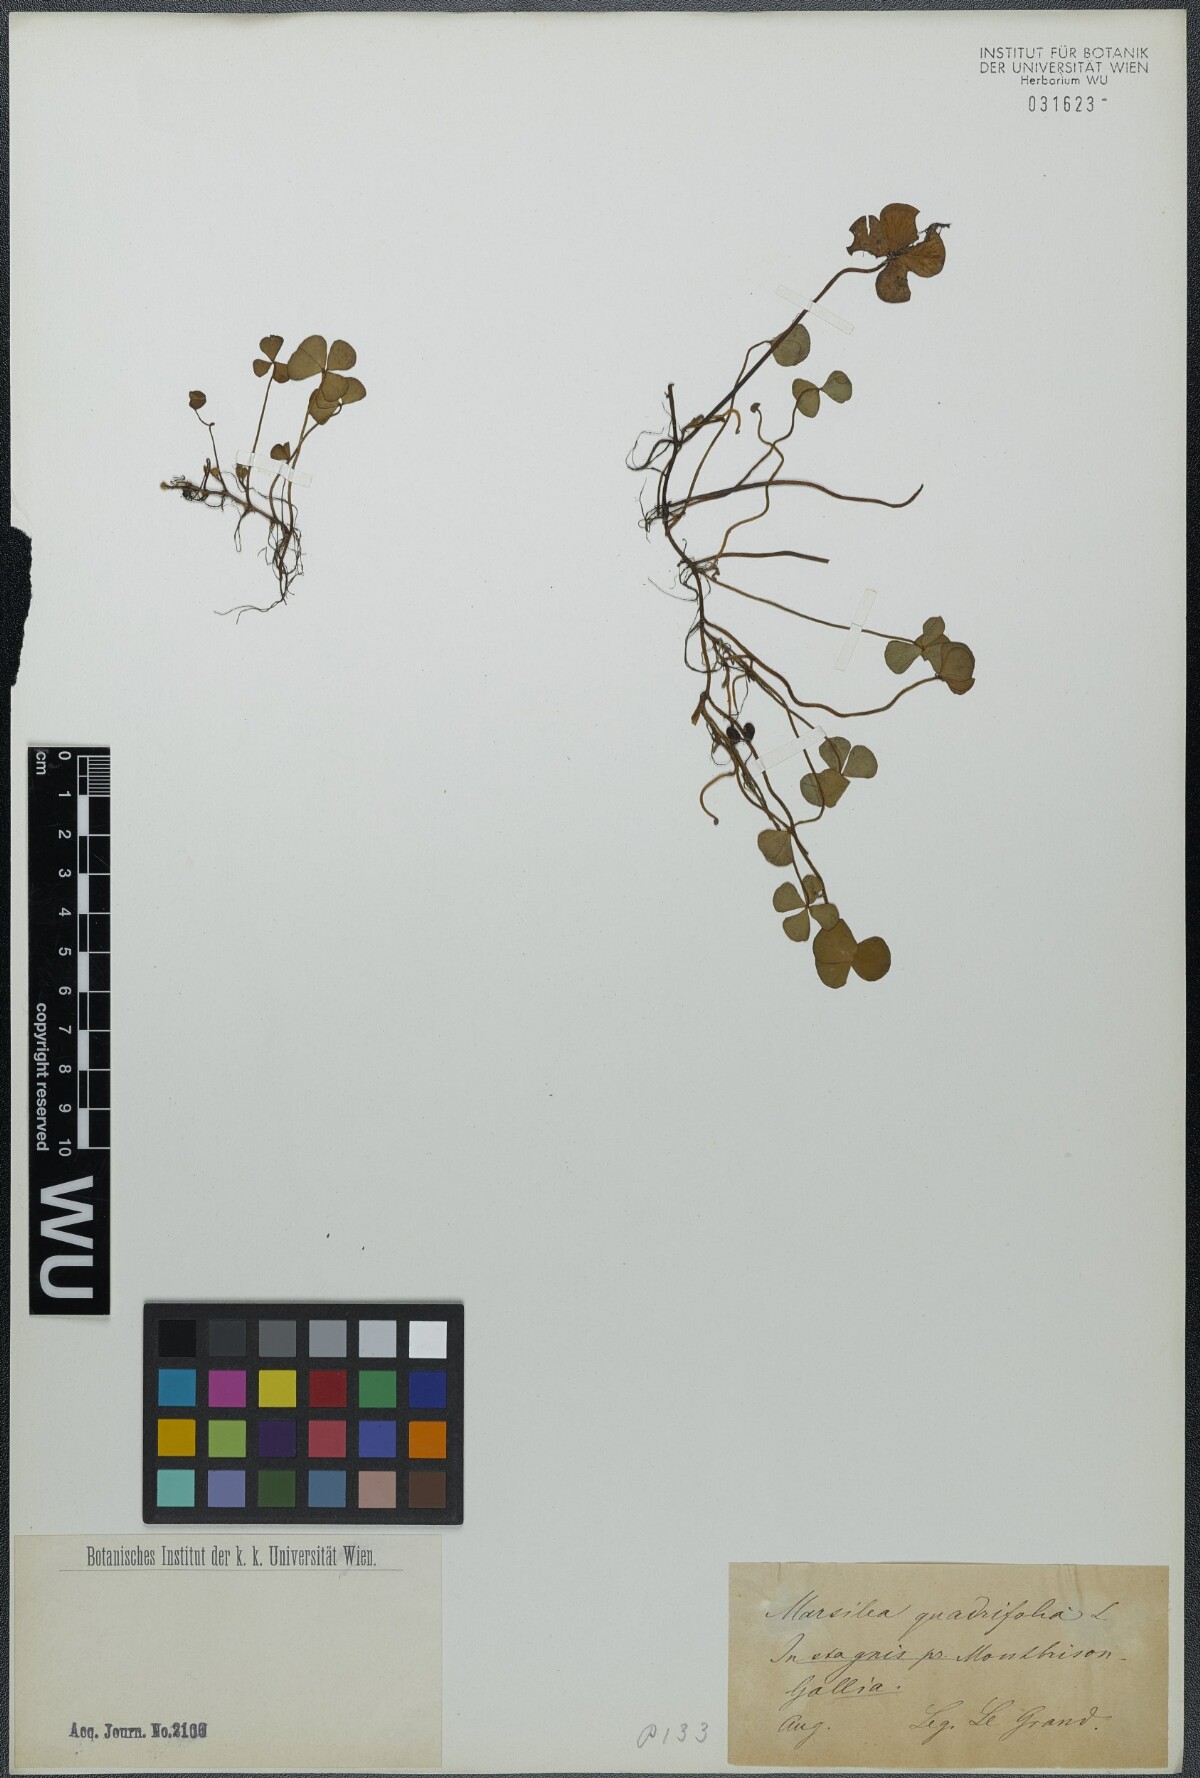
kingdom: Plantae
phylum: Tracheophyta
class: Polypodiopsida
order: Salviniales
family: Marsileaceae
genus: Marsilea
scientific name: Marsilea quadrifolia
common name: Water shamrock
